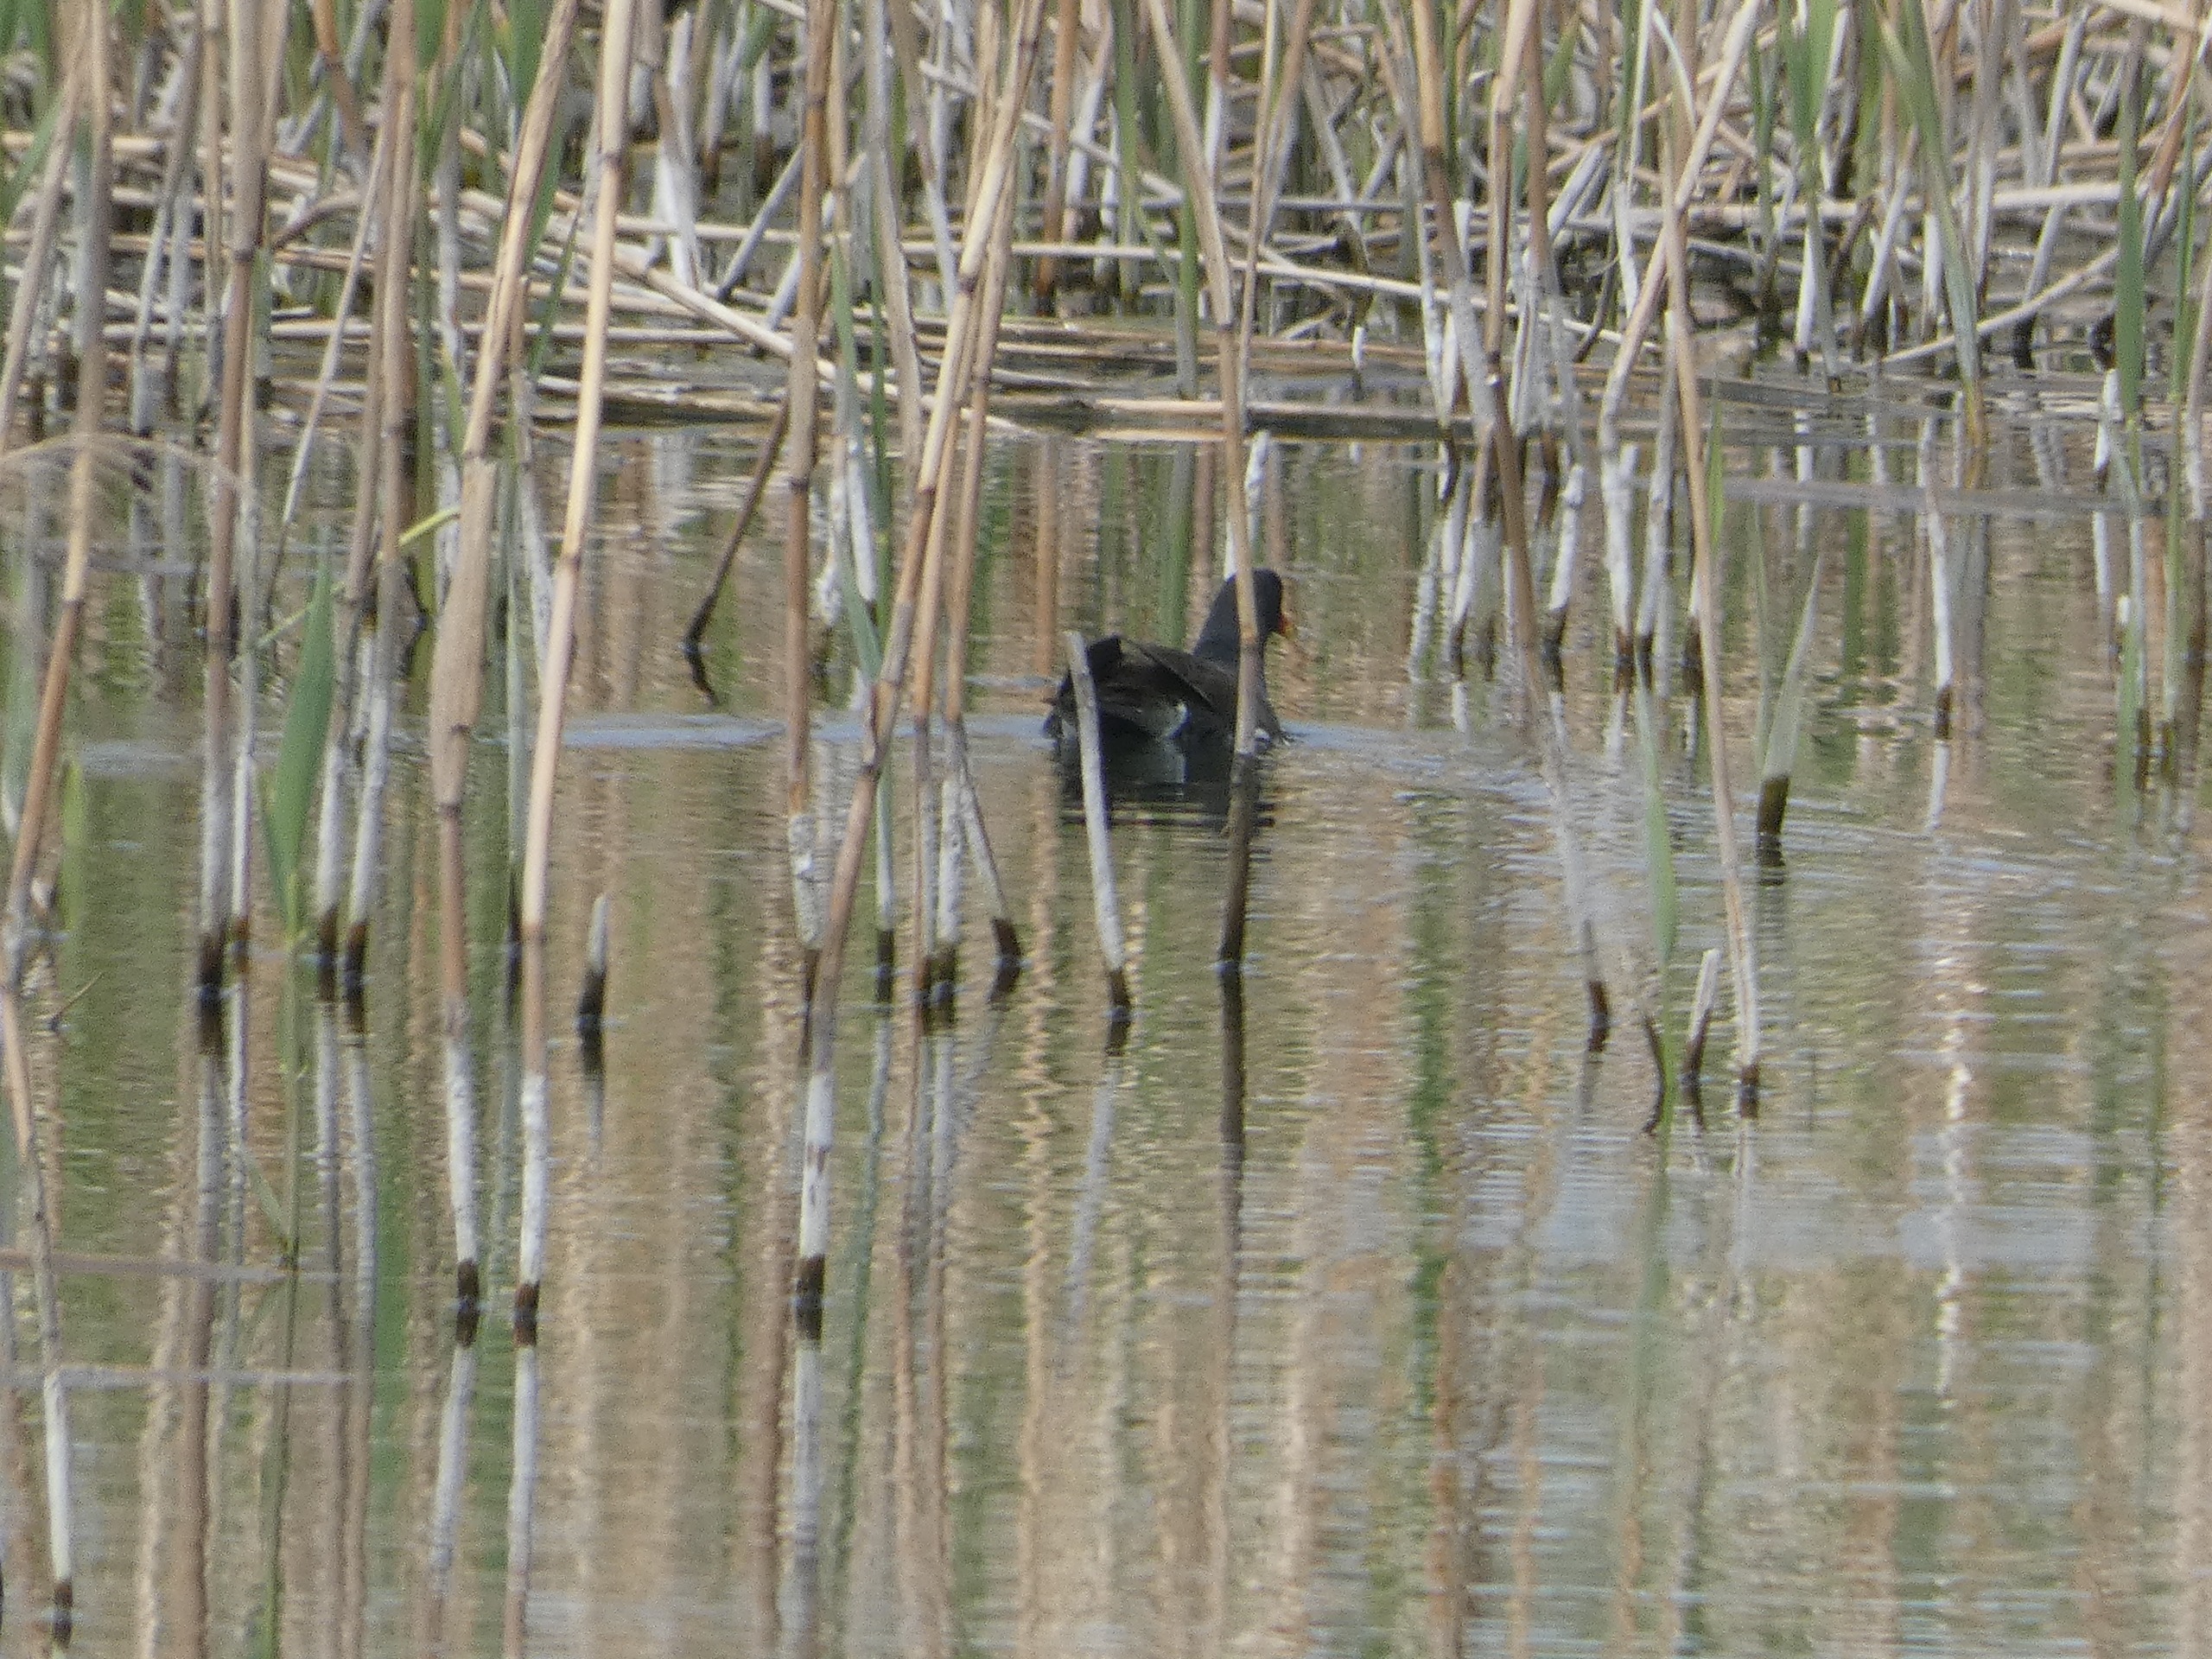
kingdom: Animalia
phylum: Chordata
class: Aves
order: Gruiformes
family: Rallidae
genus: Gallinula
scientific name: Gallinula chloropus
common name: Grønbenet rørhøne
